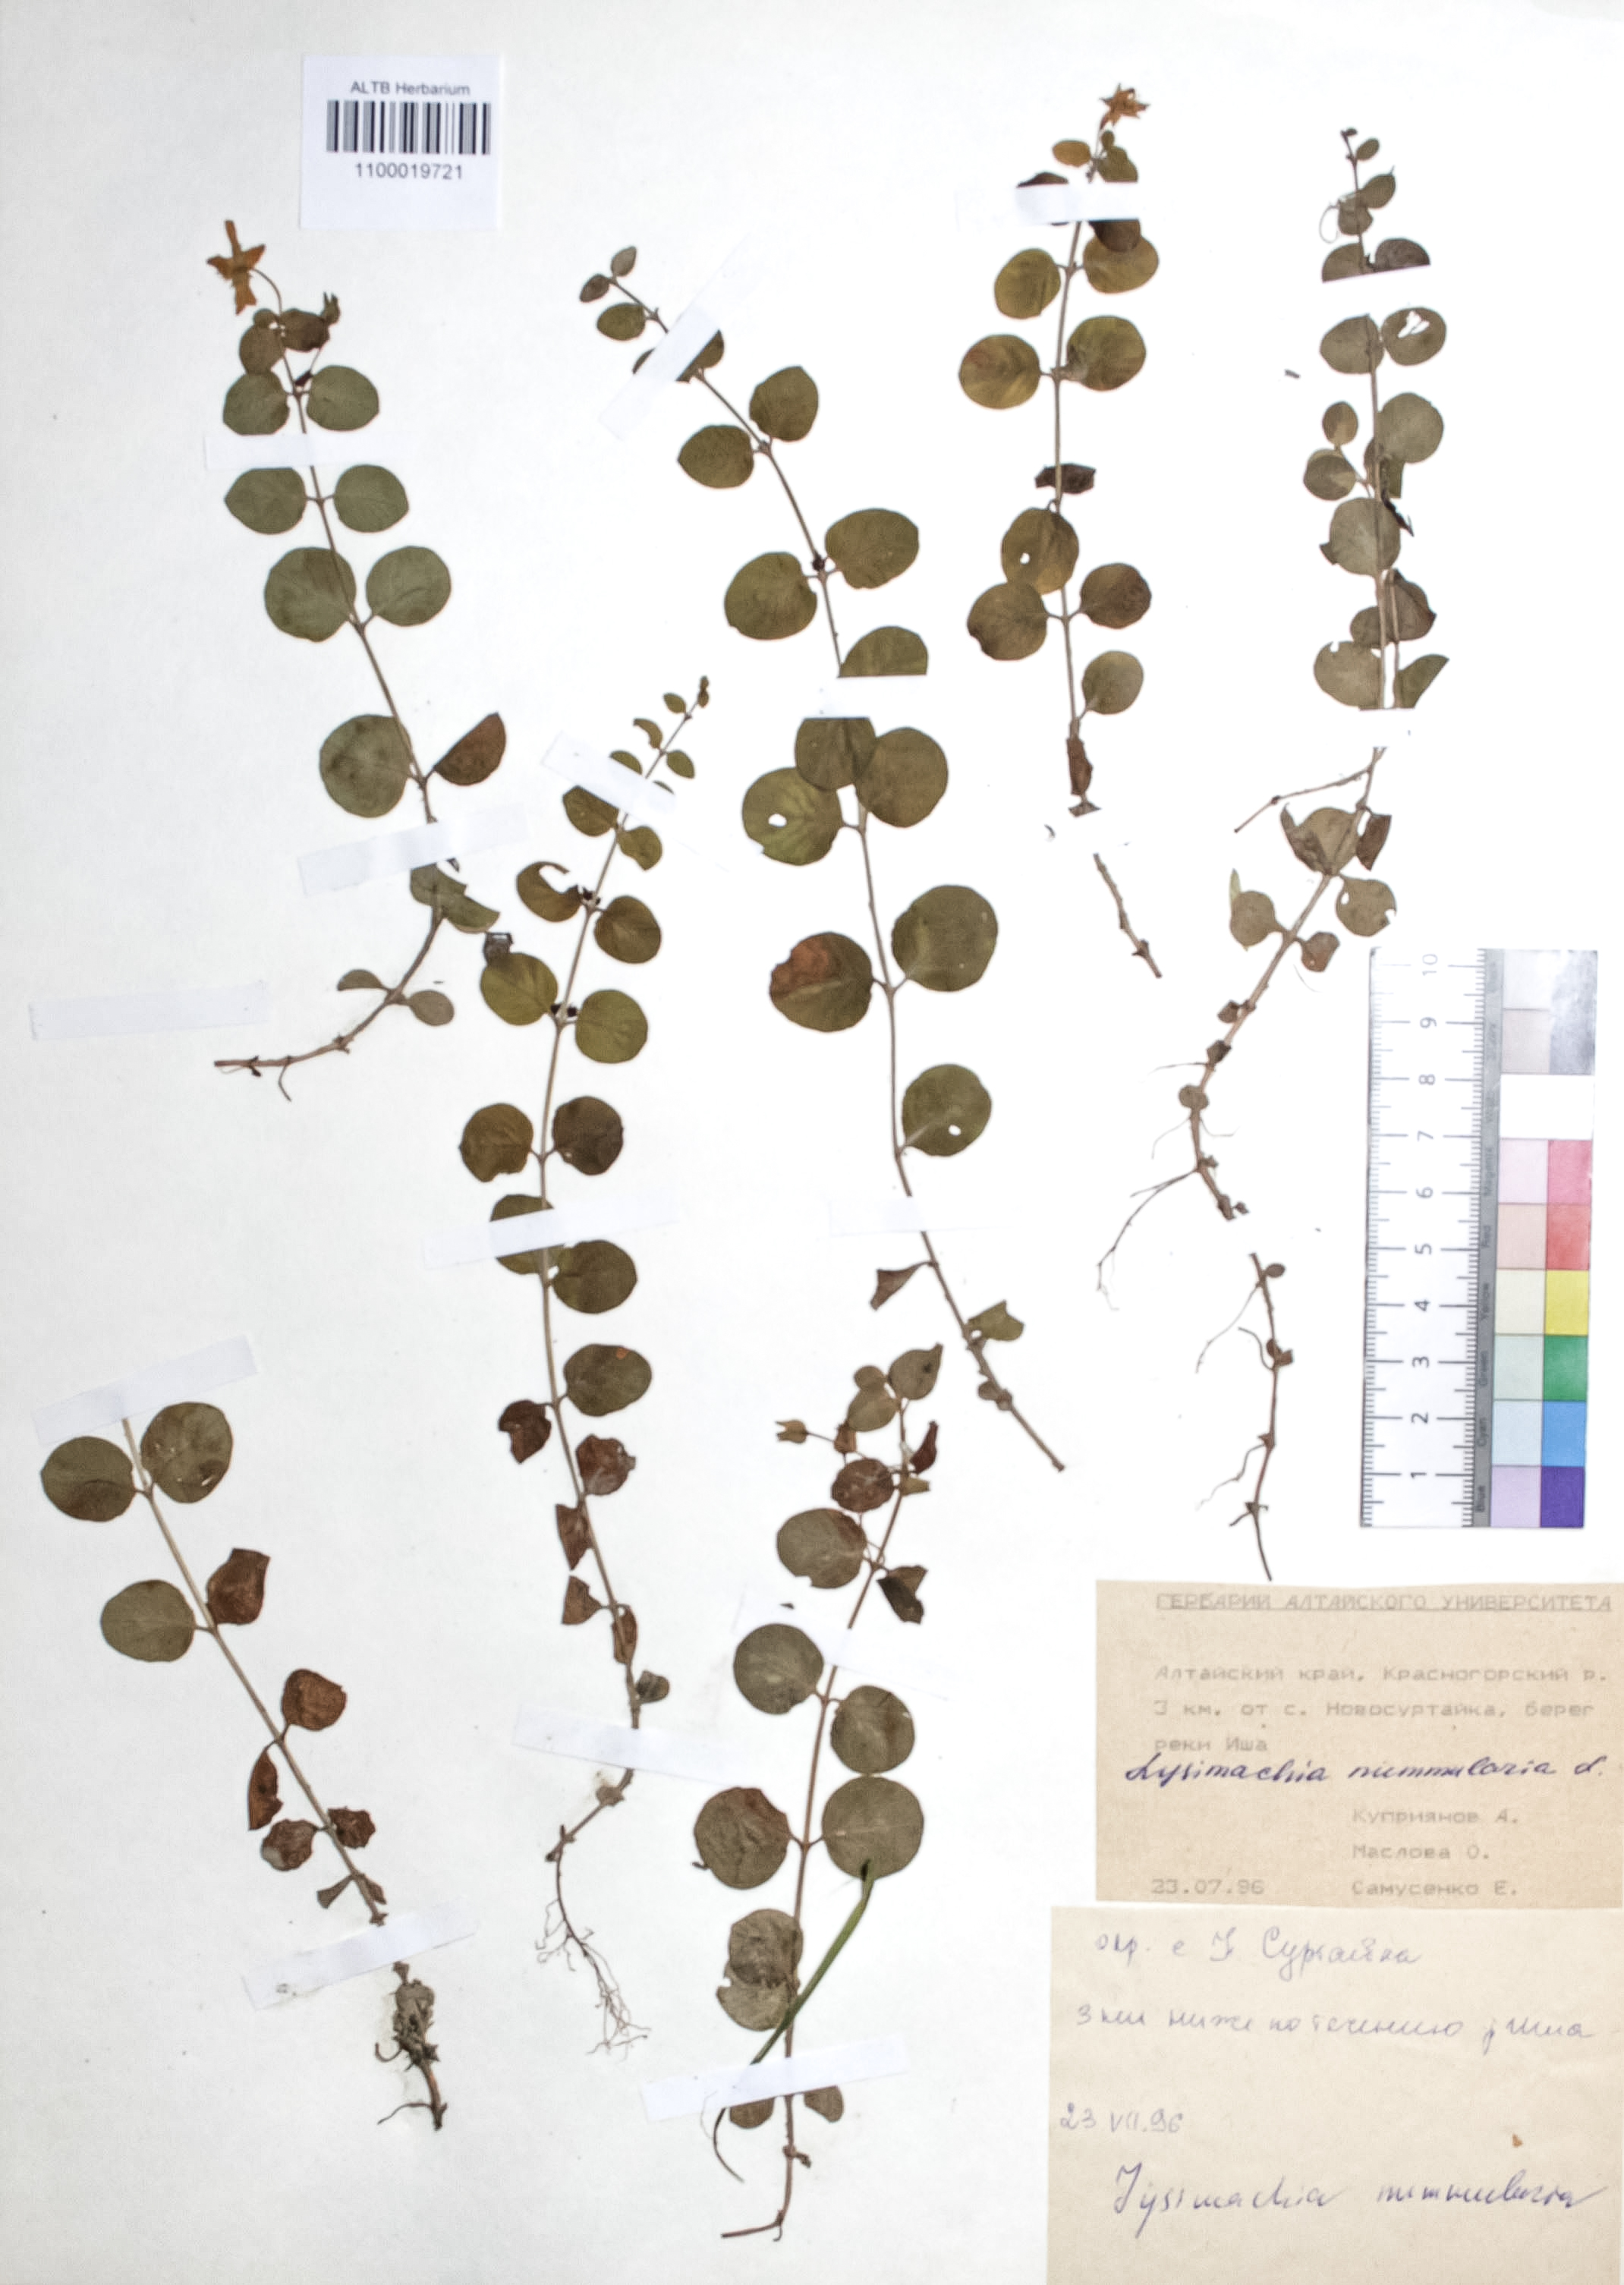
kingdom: Plantae
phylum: Tracheophyta
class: Magnoliopsida
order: Ericales
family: Primulaceae
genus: Lysimachia
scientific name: Lysimachia nummularia
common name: Moneywort
